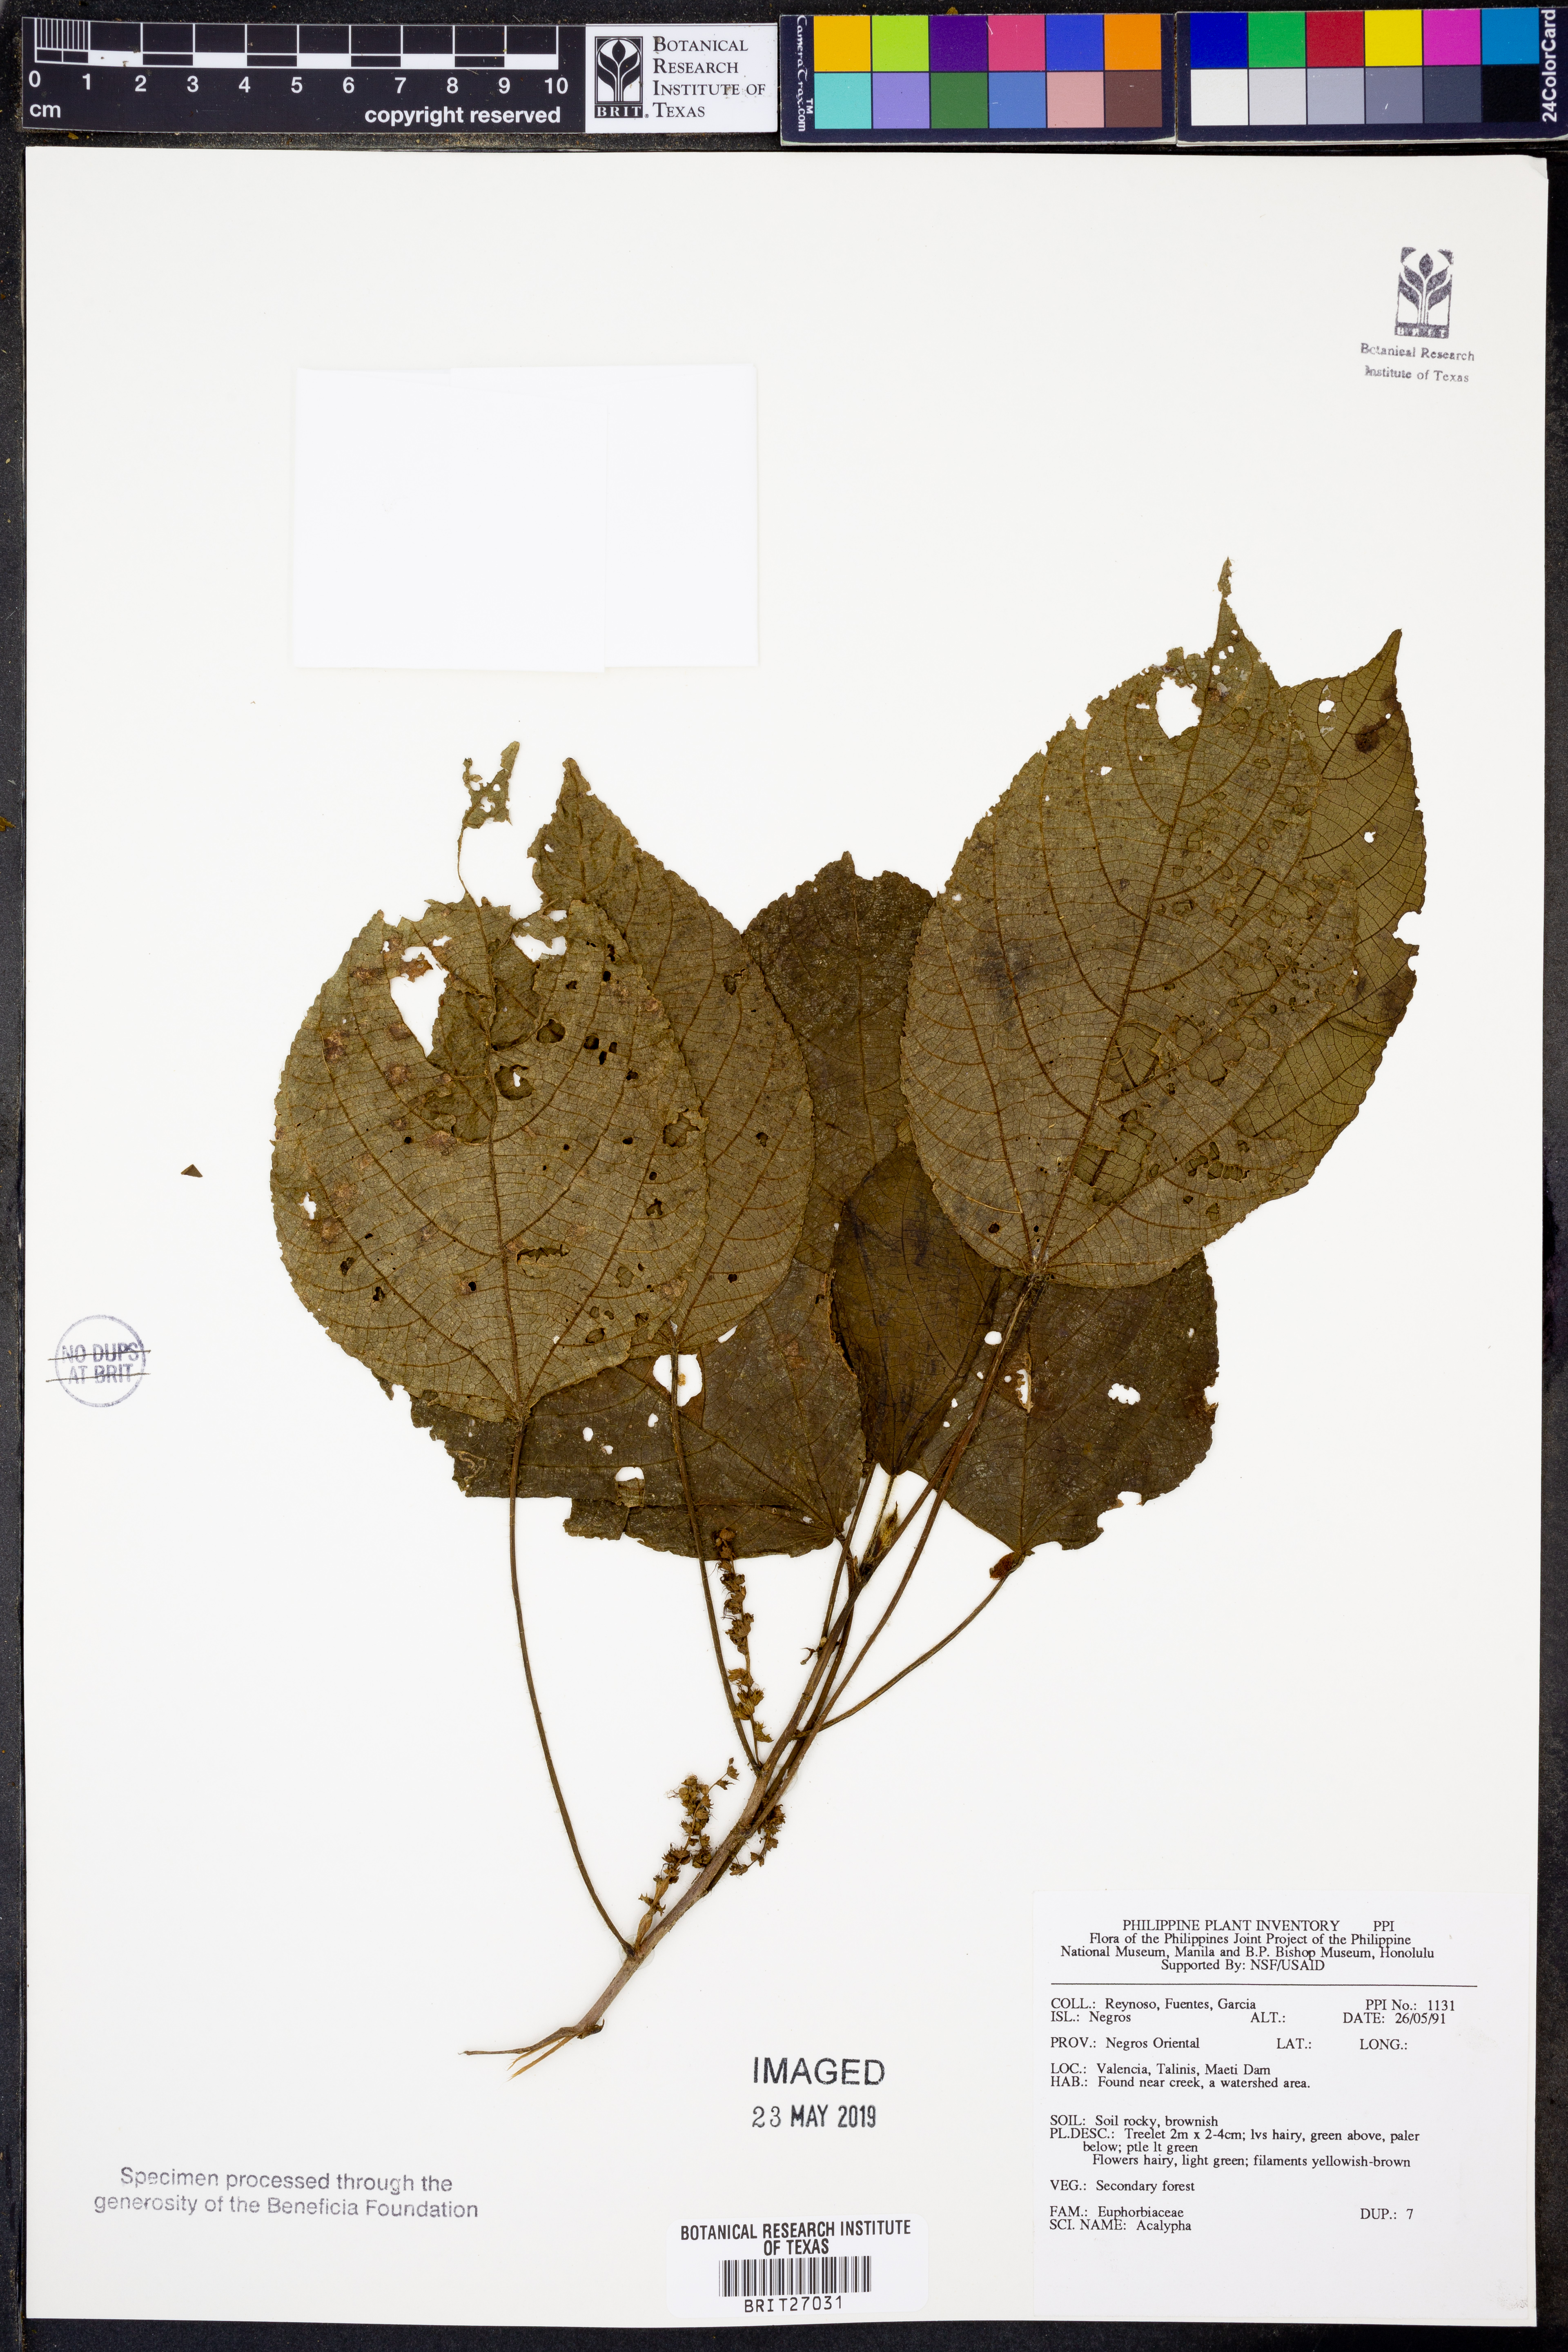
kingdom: Plantae
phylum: Tracheophyta
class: Magnoliopsida
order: Malpighiales
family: Euphorbiaceae
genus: Acalypha
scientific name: Acalypha
